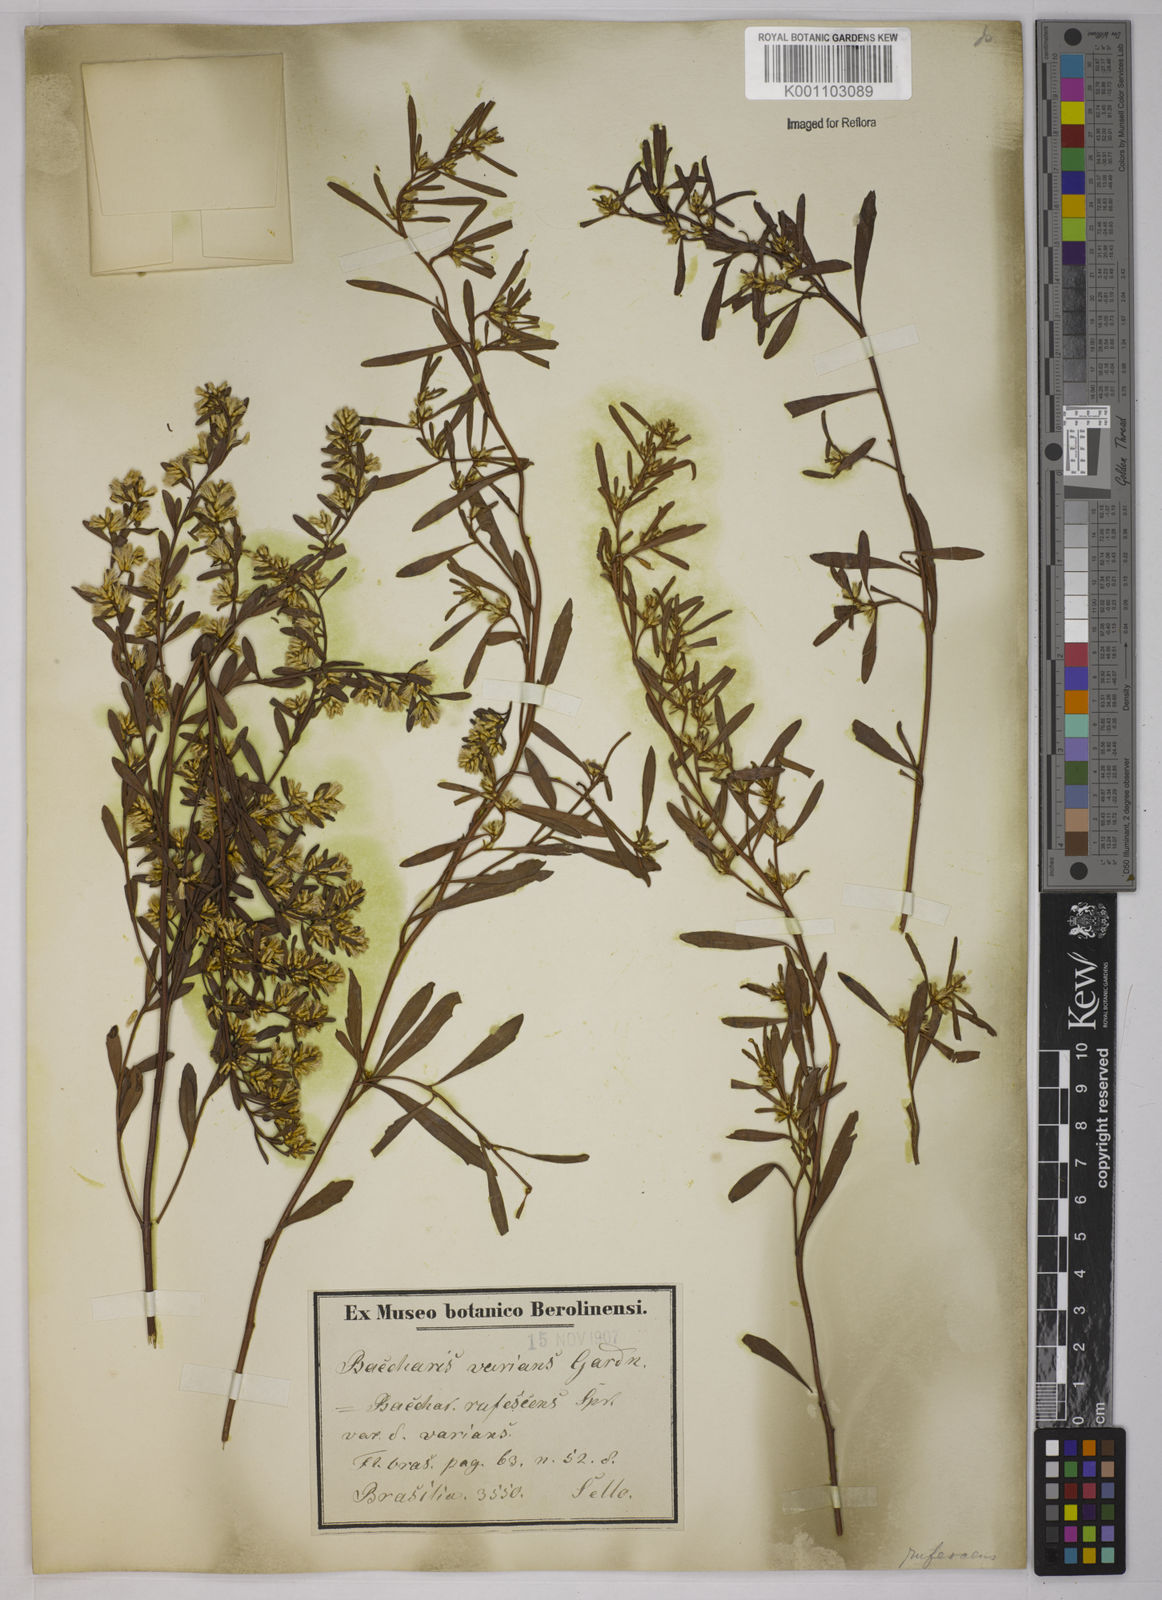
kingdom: Plantae
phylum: Tracheophyta
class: Magnoliopsida
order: Asterales
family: Asteraceae
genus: Baccharis
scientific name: Baccharis varians
